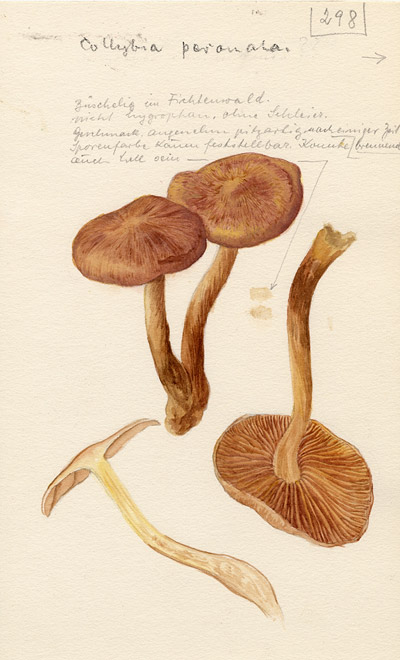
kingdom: Fungi
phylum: Basidiomycota
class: Agaricomycetes
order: Agaricales
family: Omphalotaceae
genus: Collybiopsis
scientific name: Collybiopsis peronata
